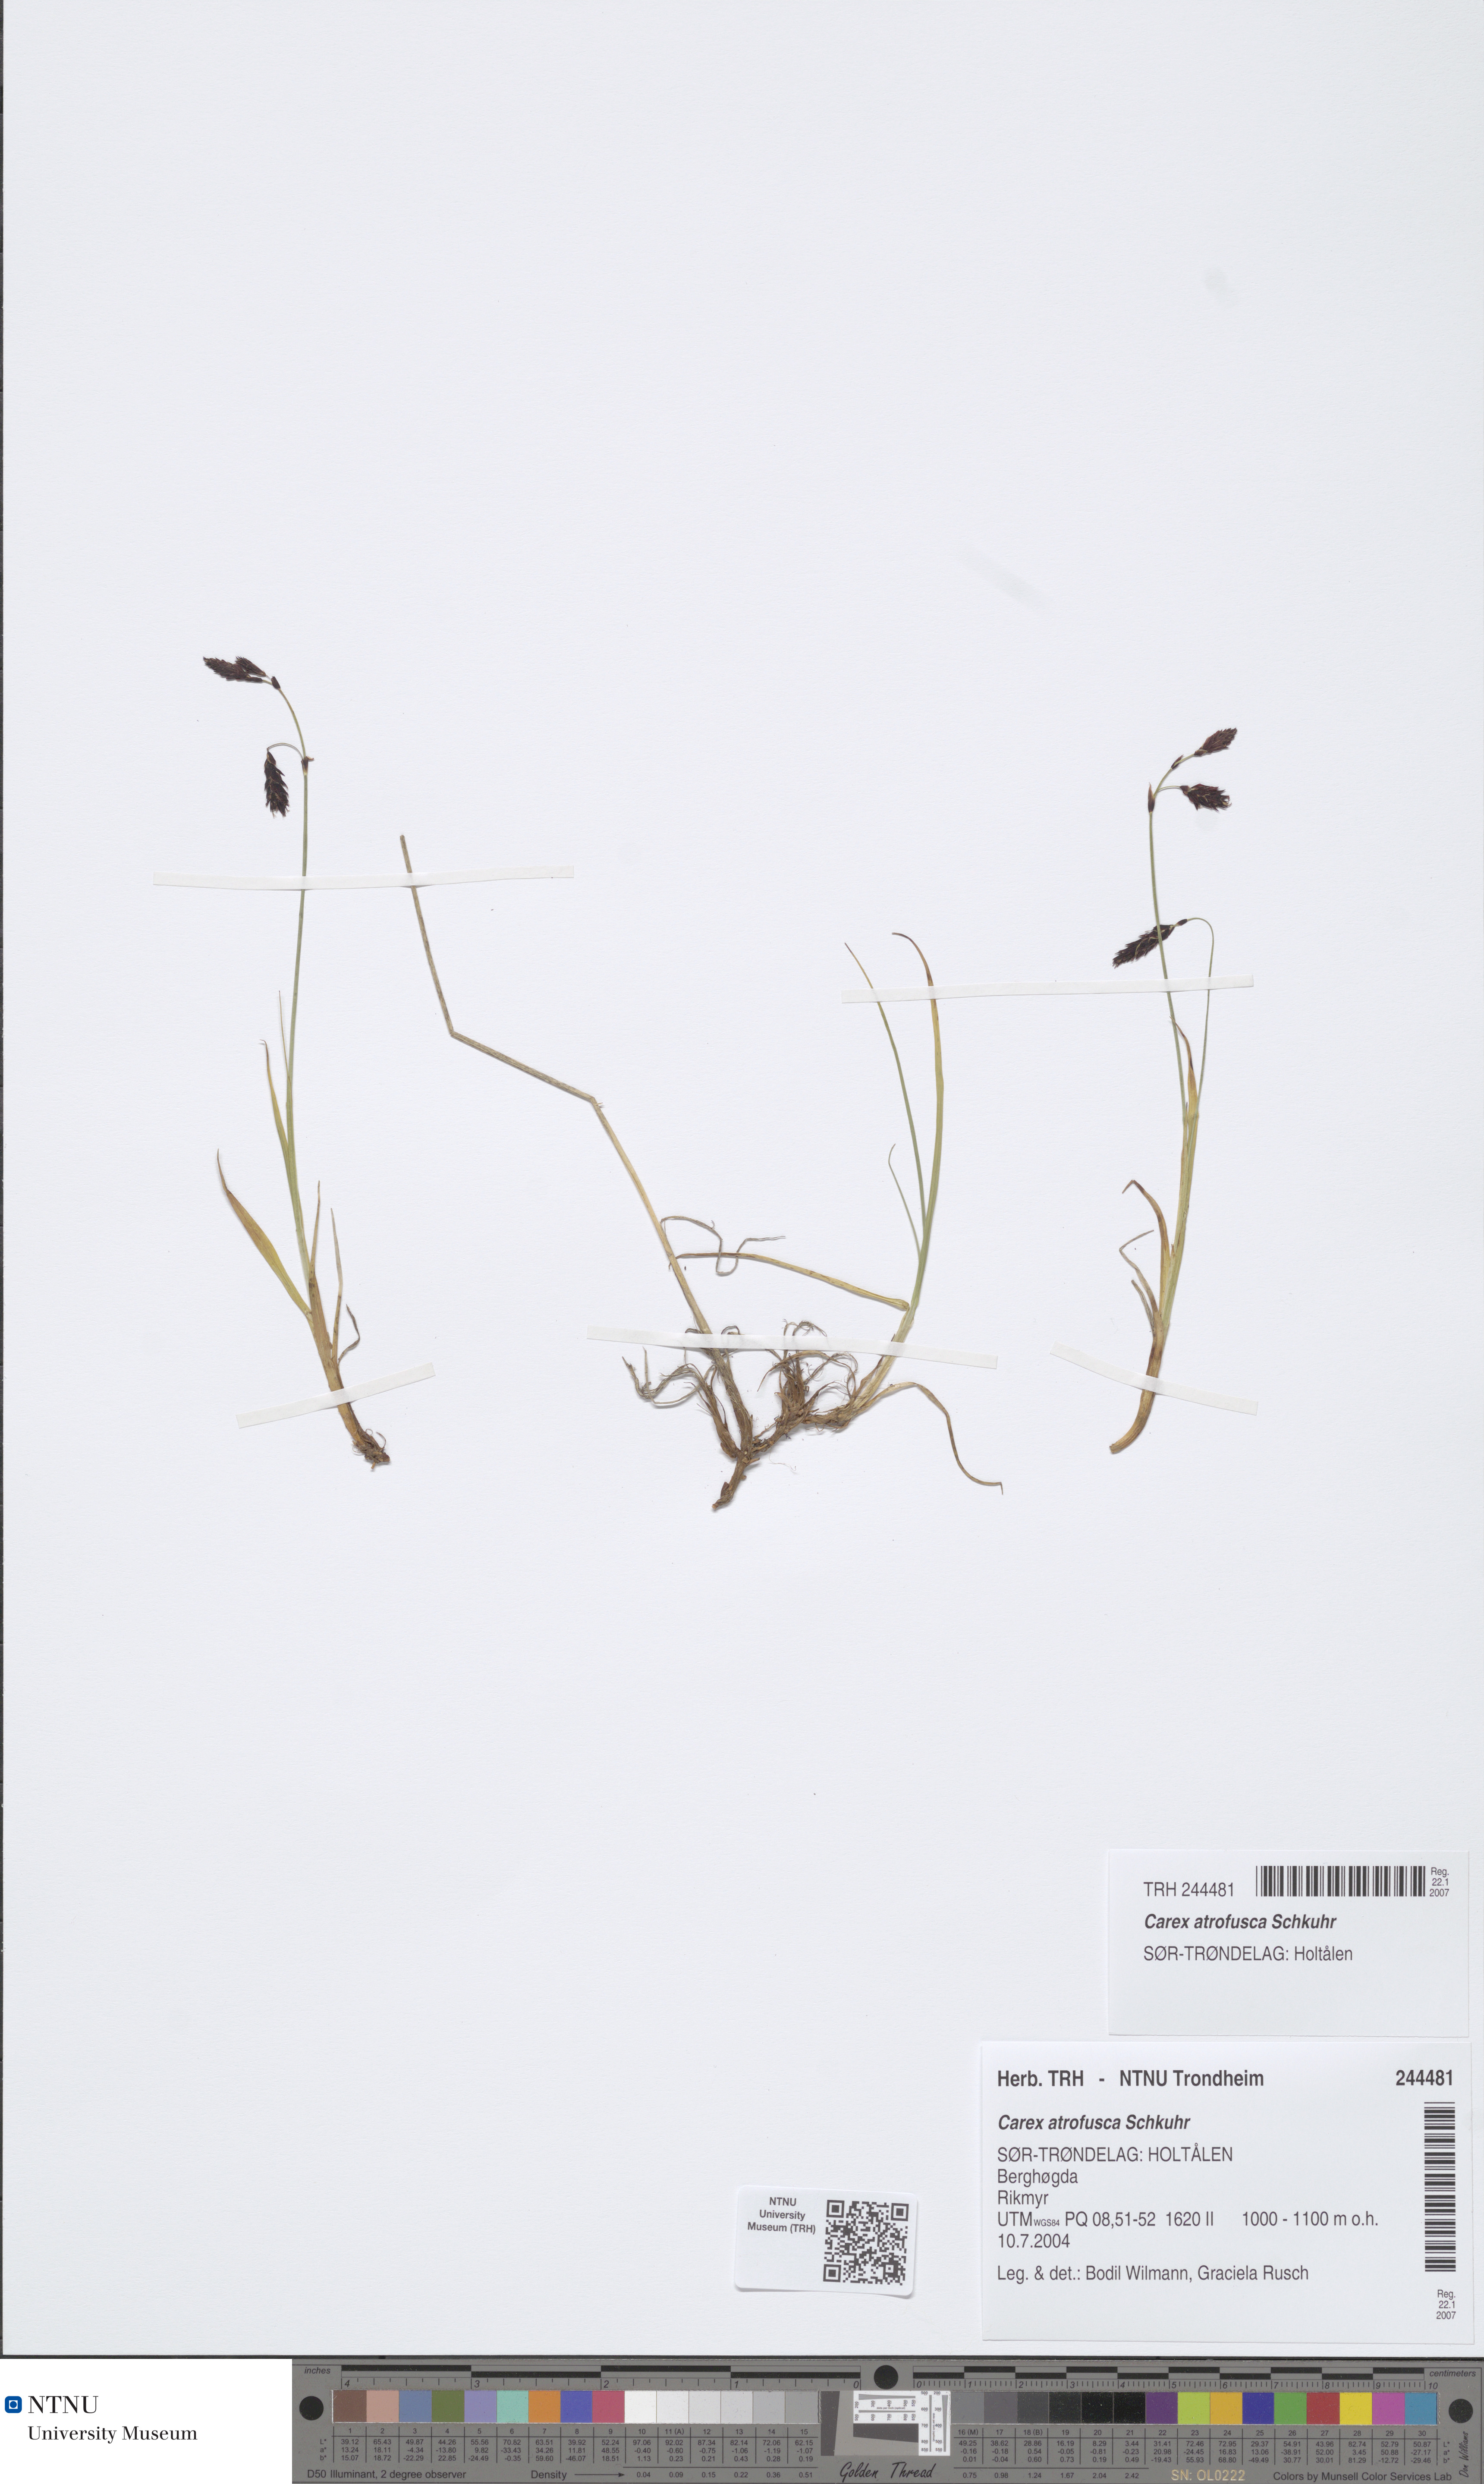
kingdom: Plantae
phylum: Tracheophyta
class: Liliopsida
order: Poales
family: Cyperaceae
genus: Carex
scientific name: Carex atrofusca
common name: Scorched alpine-sedge
